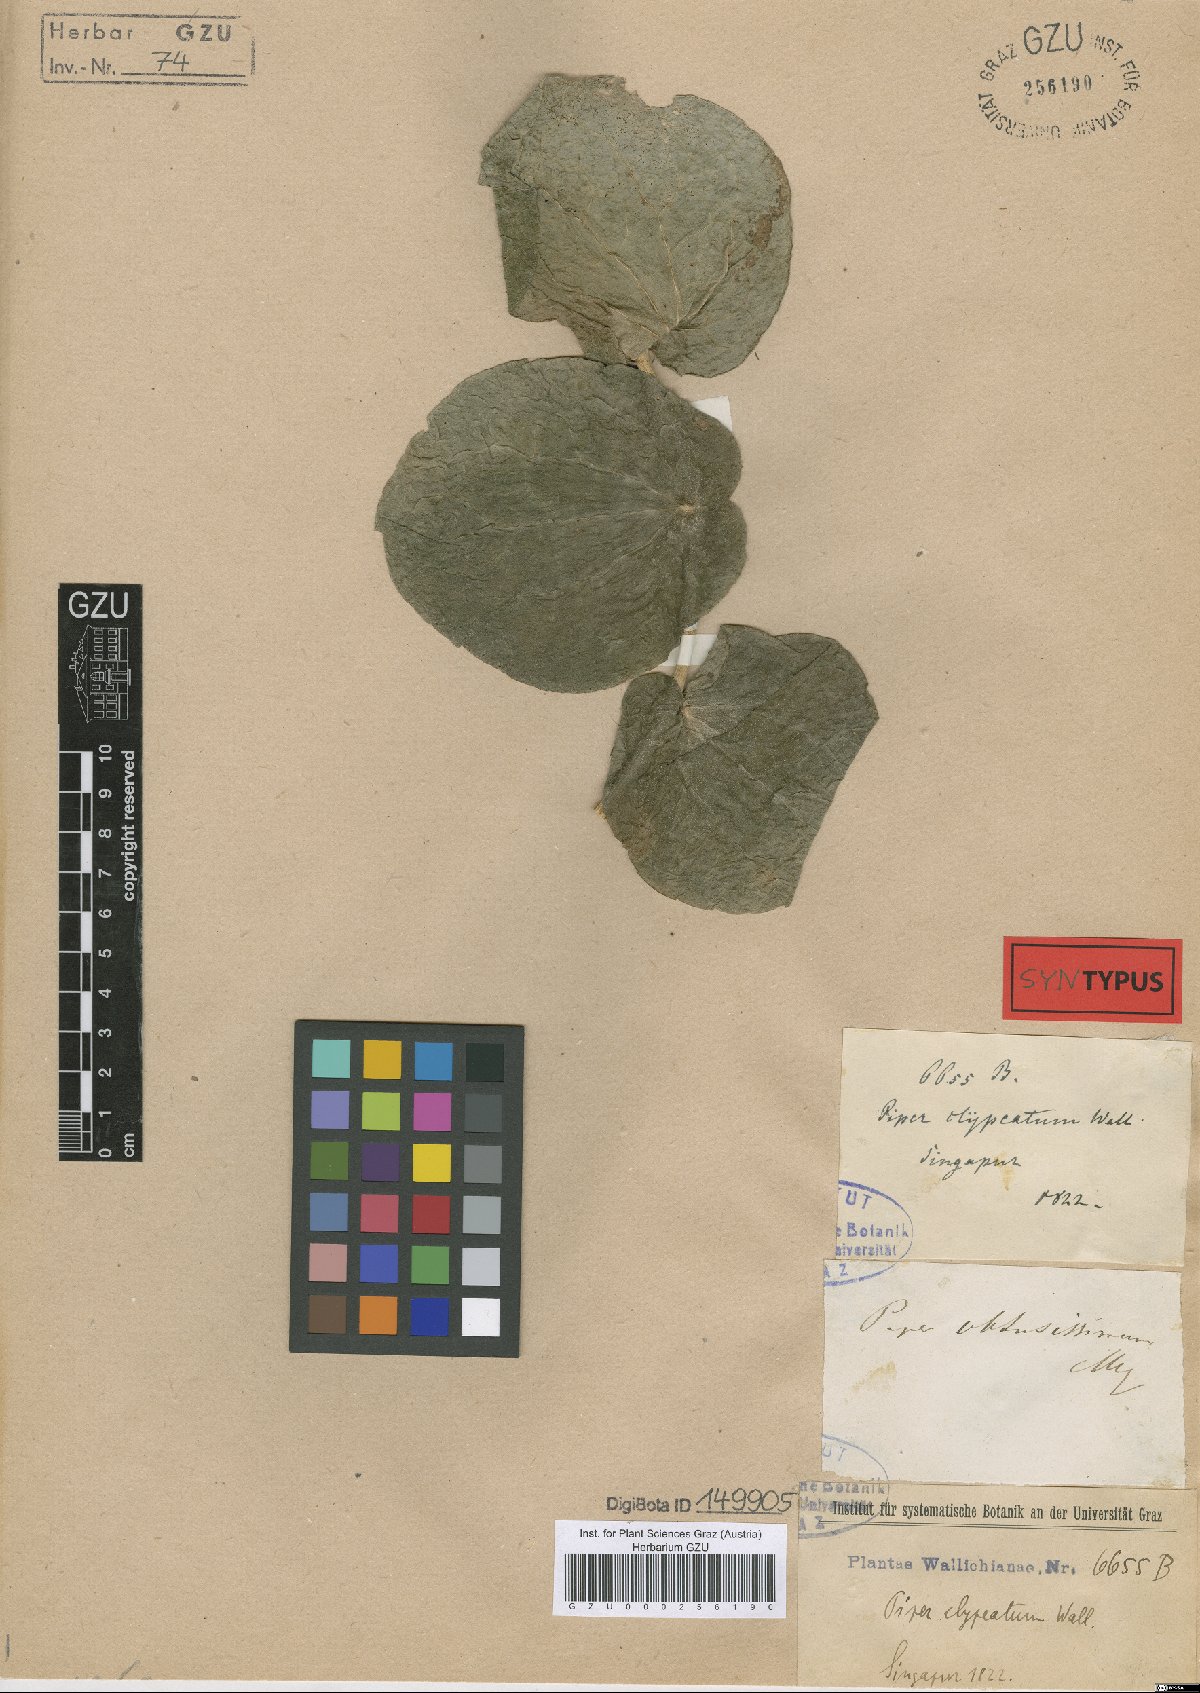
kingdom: Plantae
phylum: Tracheophyta
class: Magnoliopsida
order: Piperales
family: Piperaceae
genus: Piper
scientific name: Piper obtusissimum
